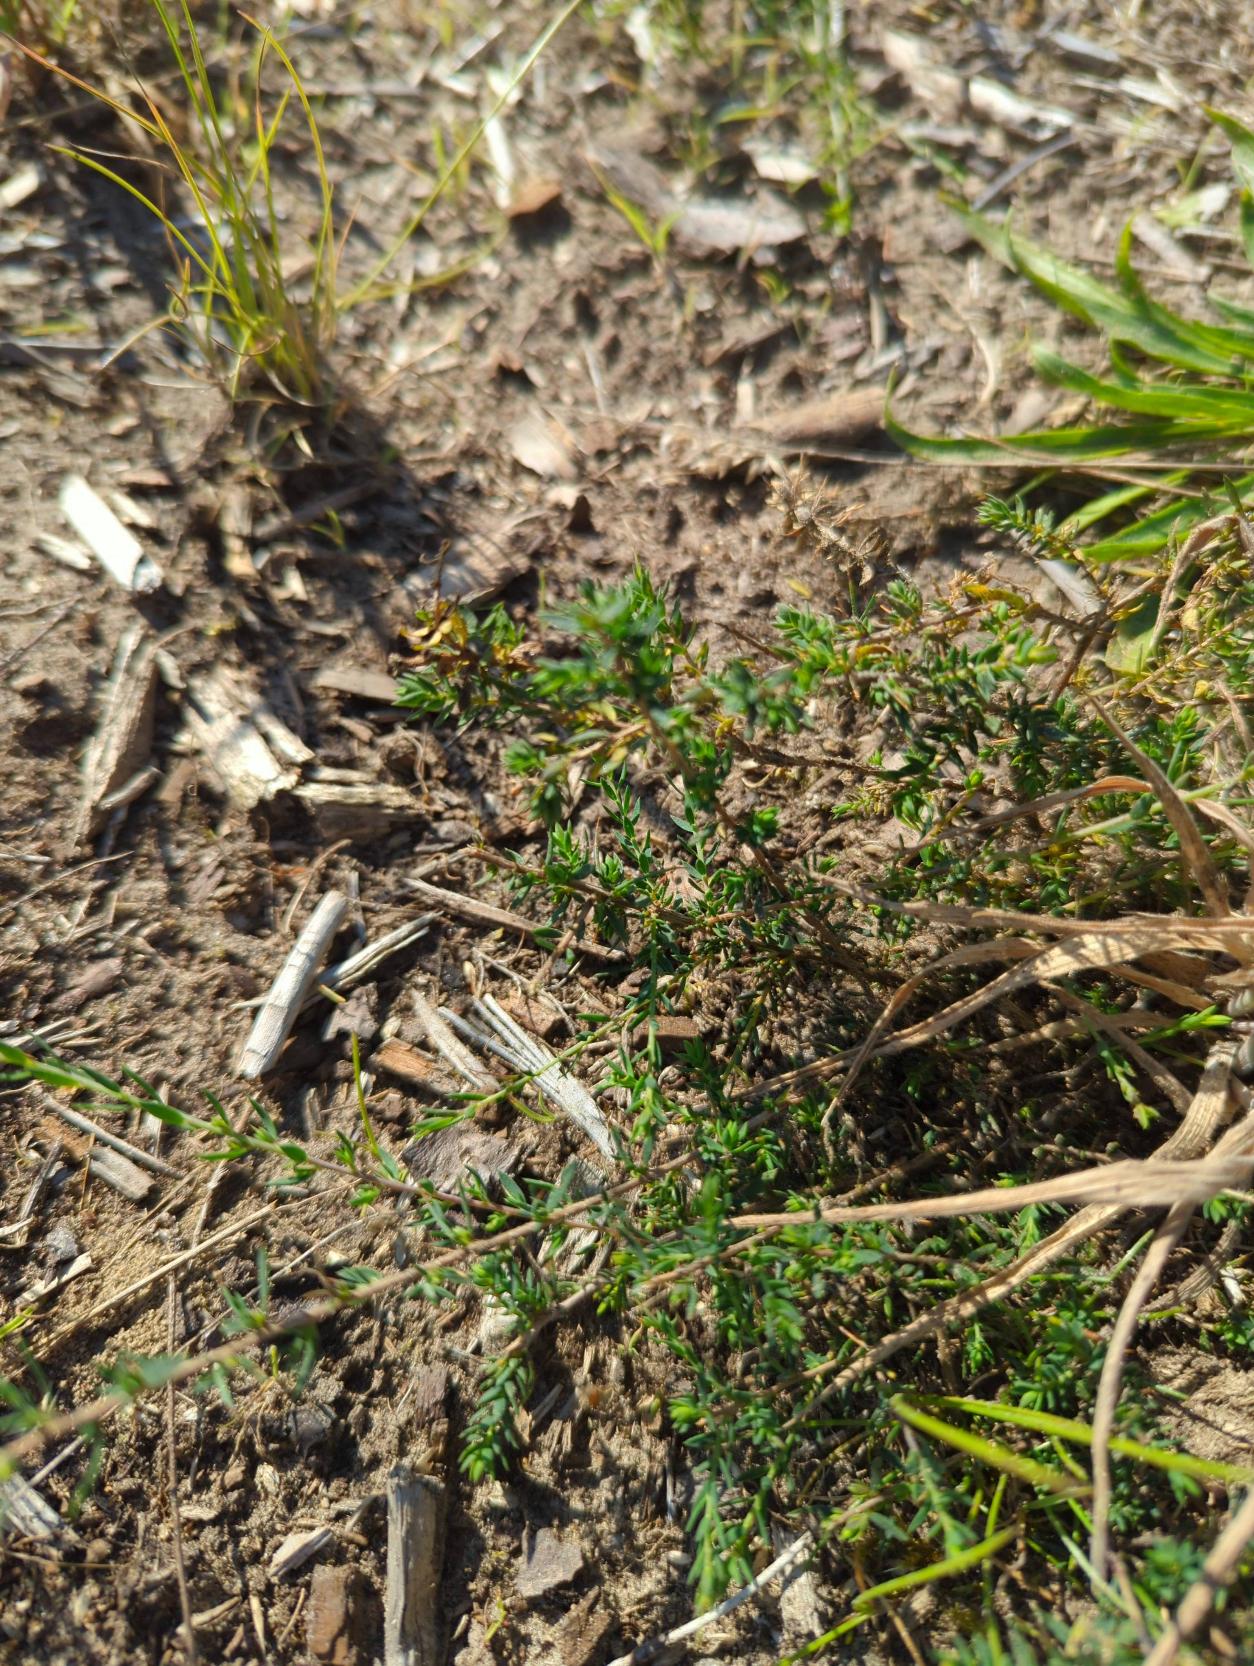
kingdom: Plantae
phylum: Tracheophyta
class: Magnoliopsida
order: Fabales
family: Fabaceae
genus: Genista
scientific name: Genista anglica
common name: Engelsk visse
